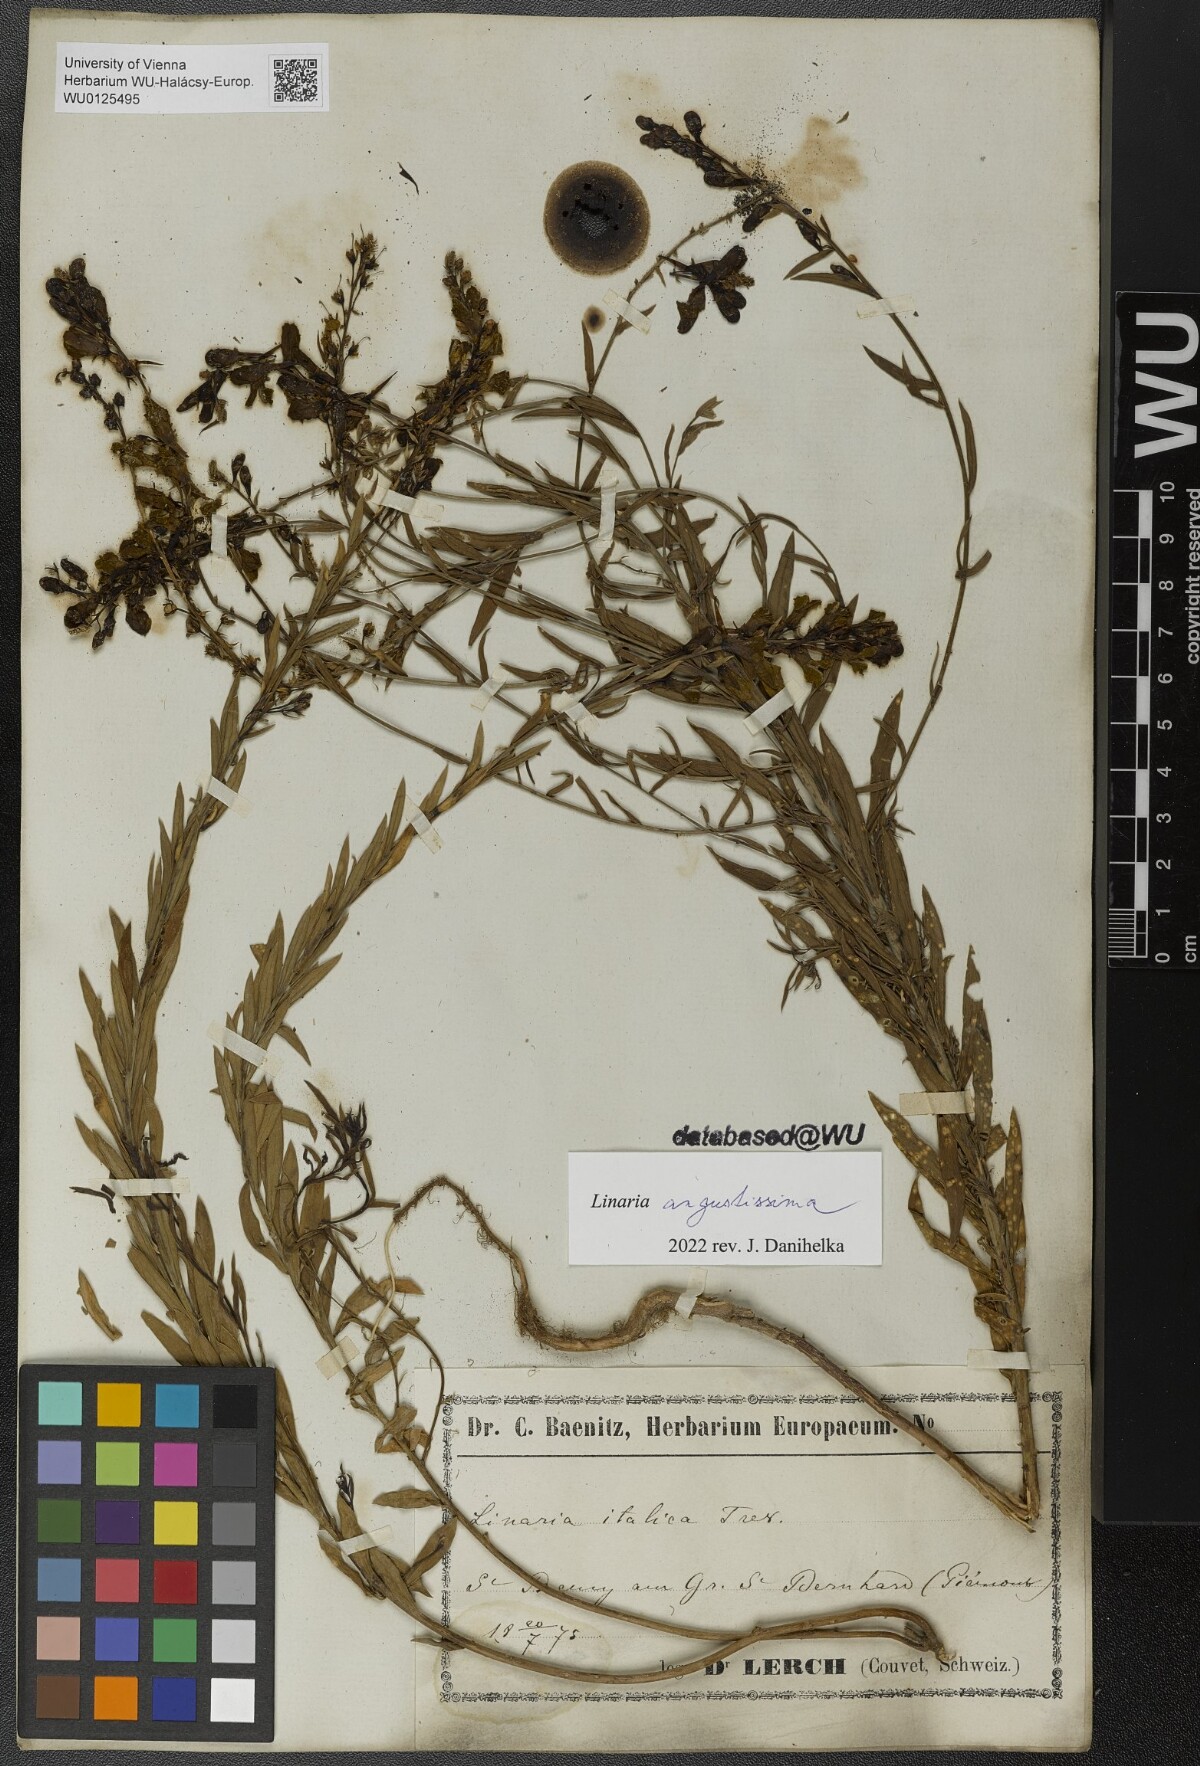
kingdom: Plantae
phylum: Tracheophyta
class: Magnoliopsida
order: Lamiales
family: Plantaginaceae
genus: Linaria
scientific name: Linaria angustissima
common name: Italian toadflax
